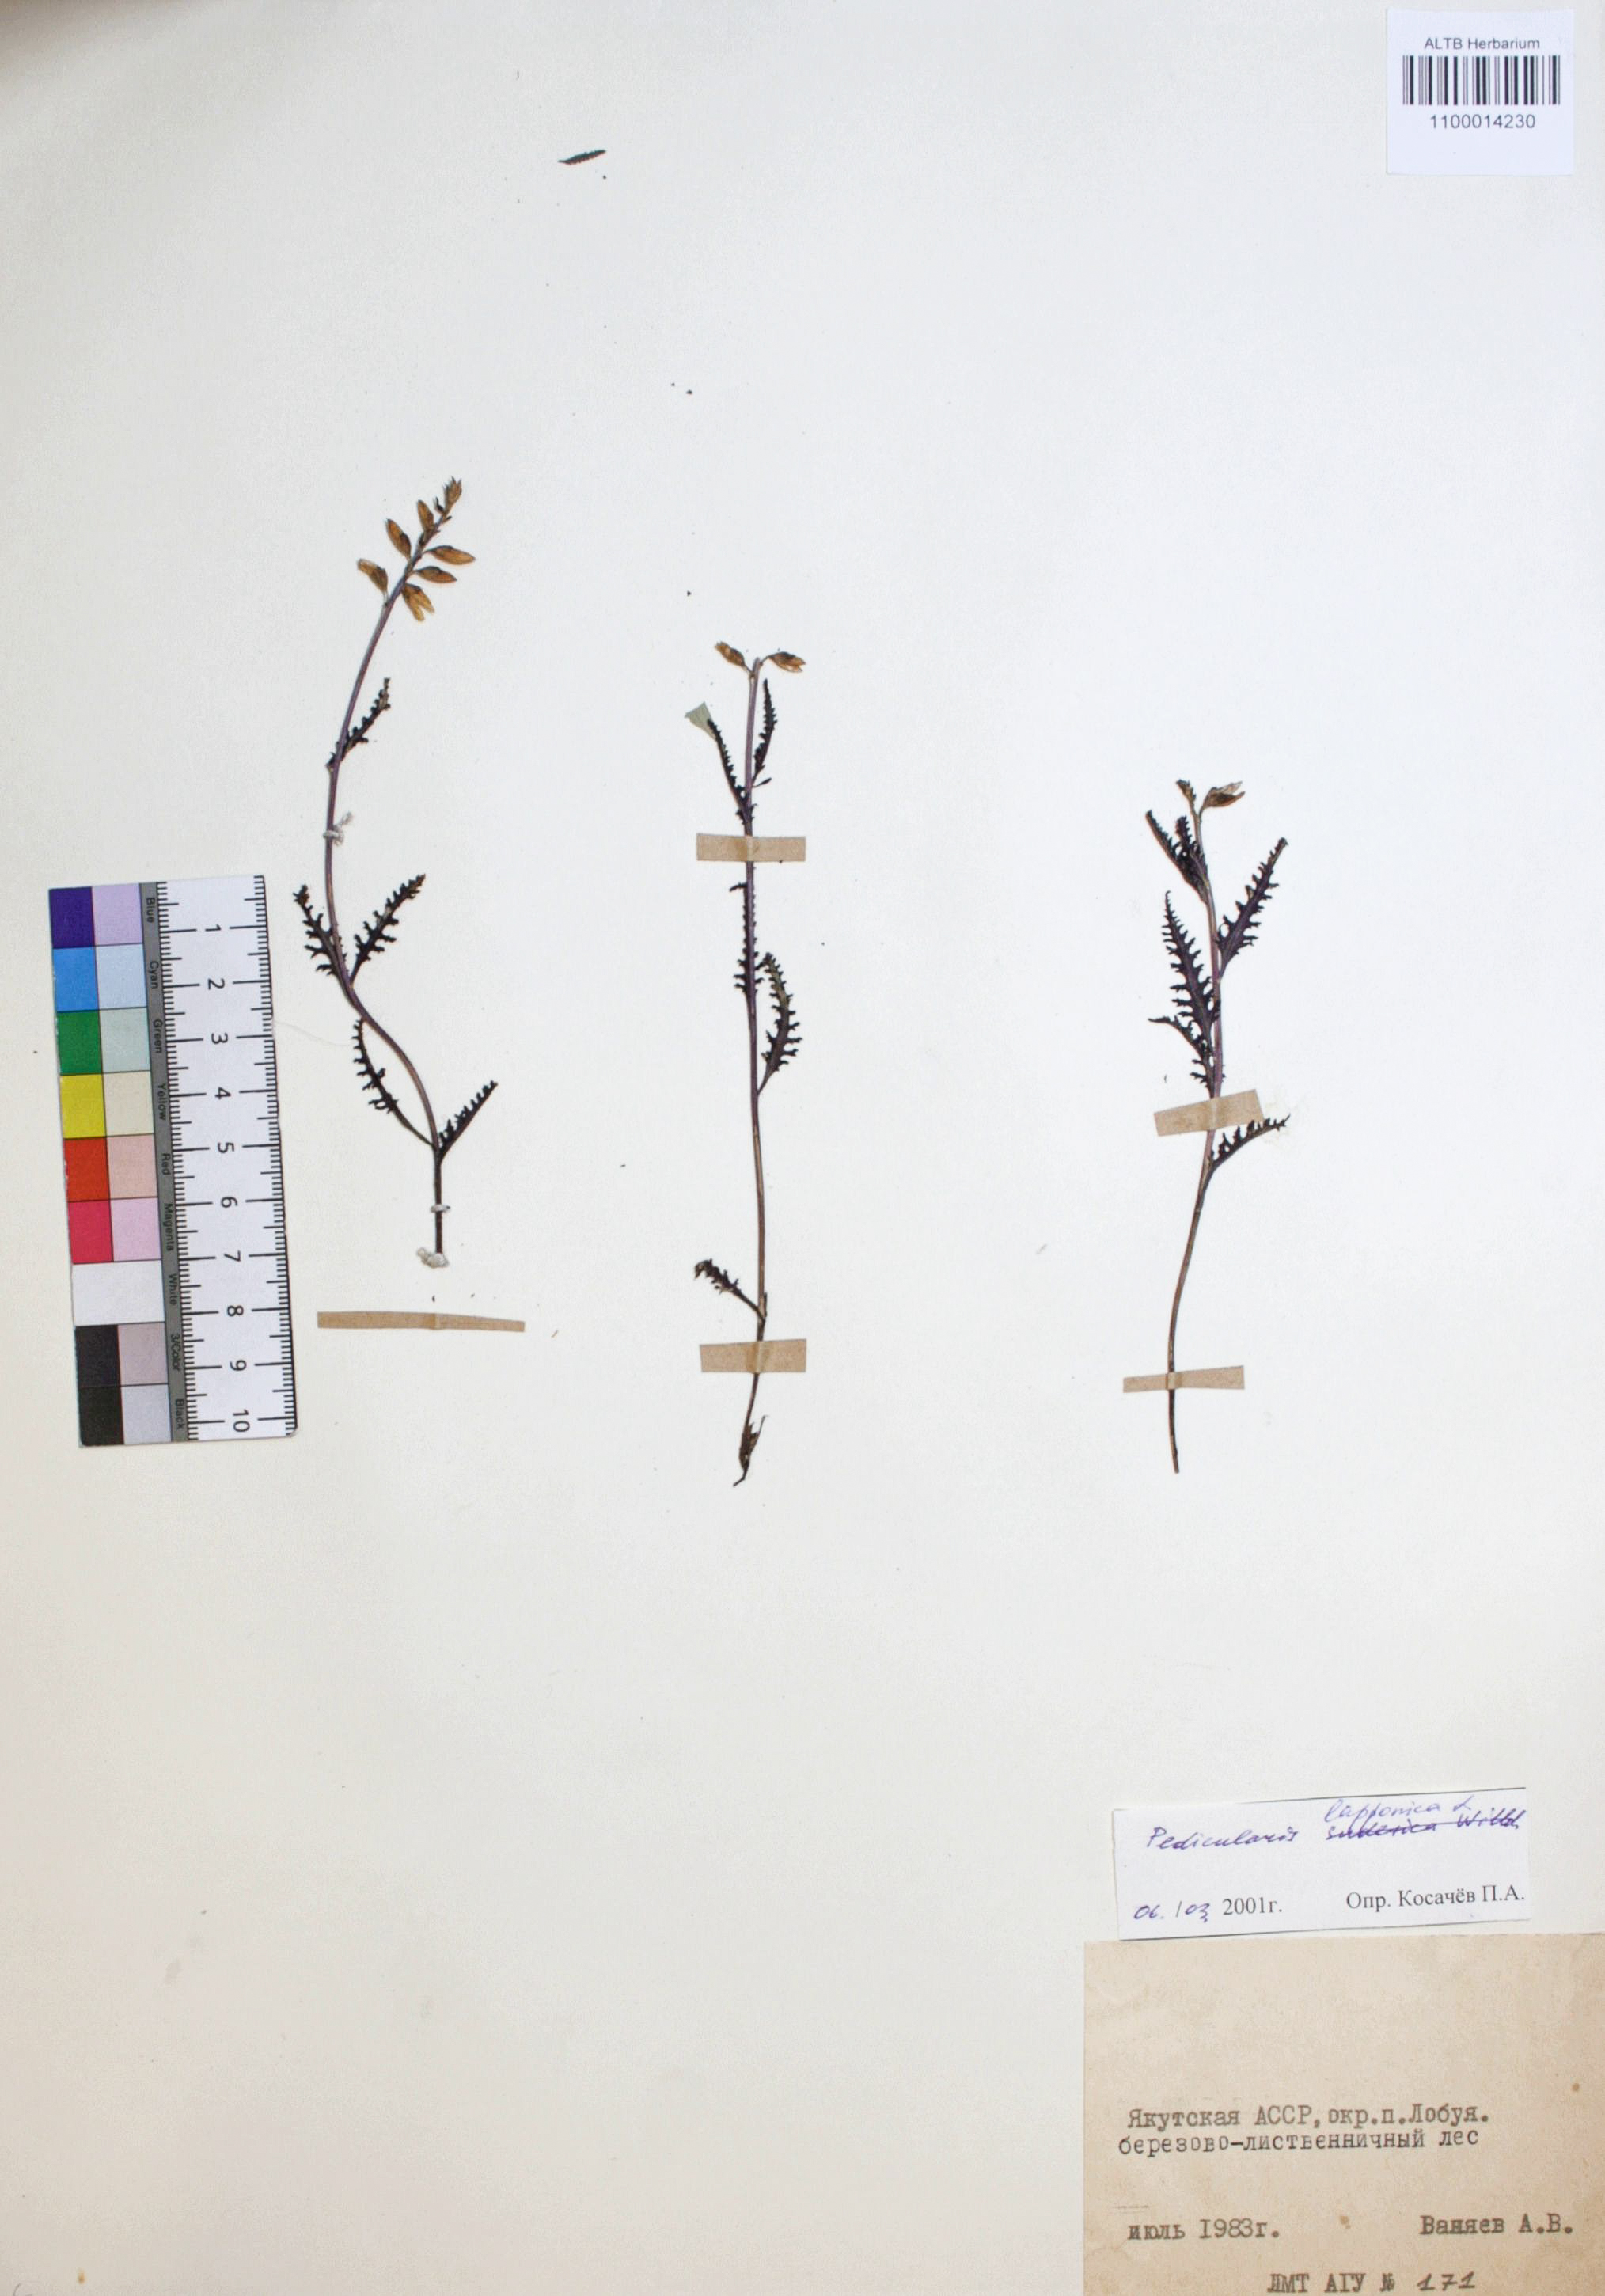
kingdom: Plantae
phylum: Tracheophyta
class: Magnoliopsida
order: Lamiales
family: Orobanchaceae
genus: Pedicularis
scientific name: Pedicularis lapponica
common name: Lapland lousewort
